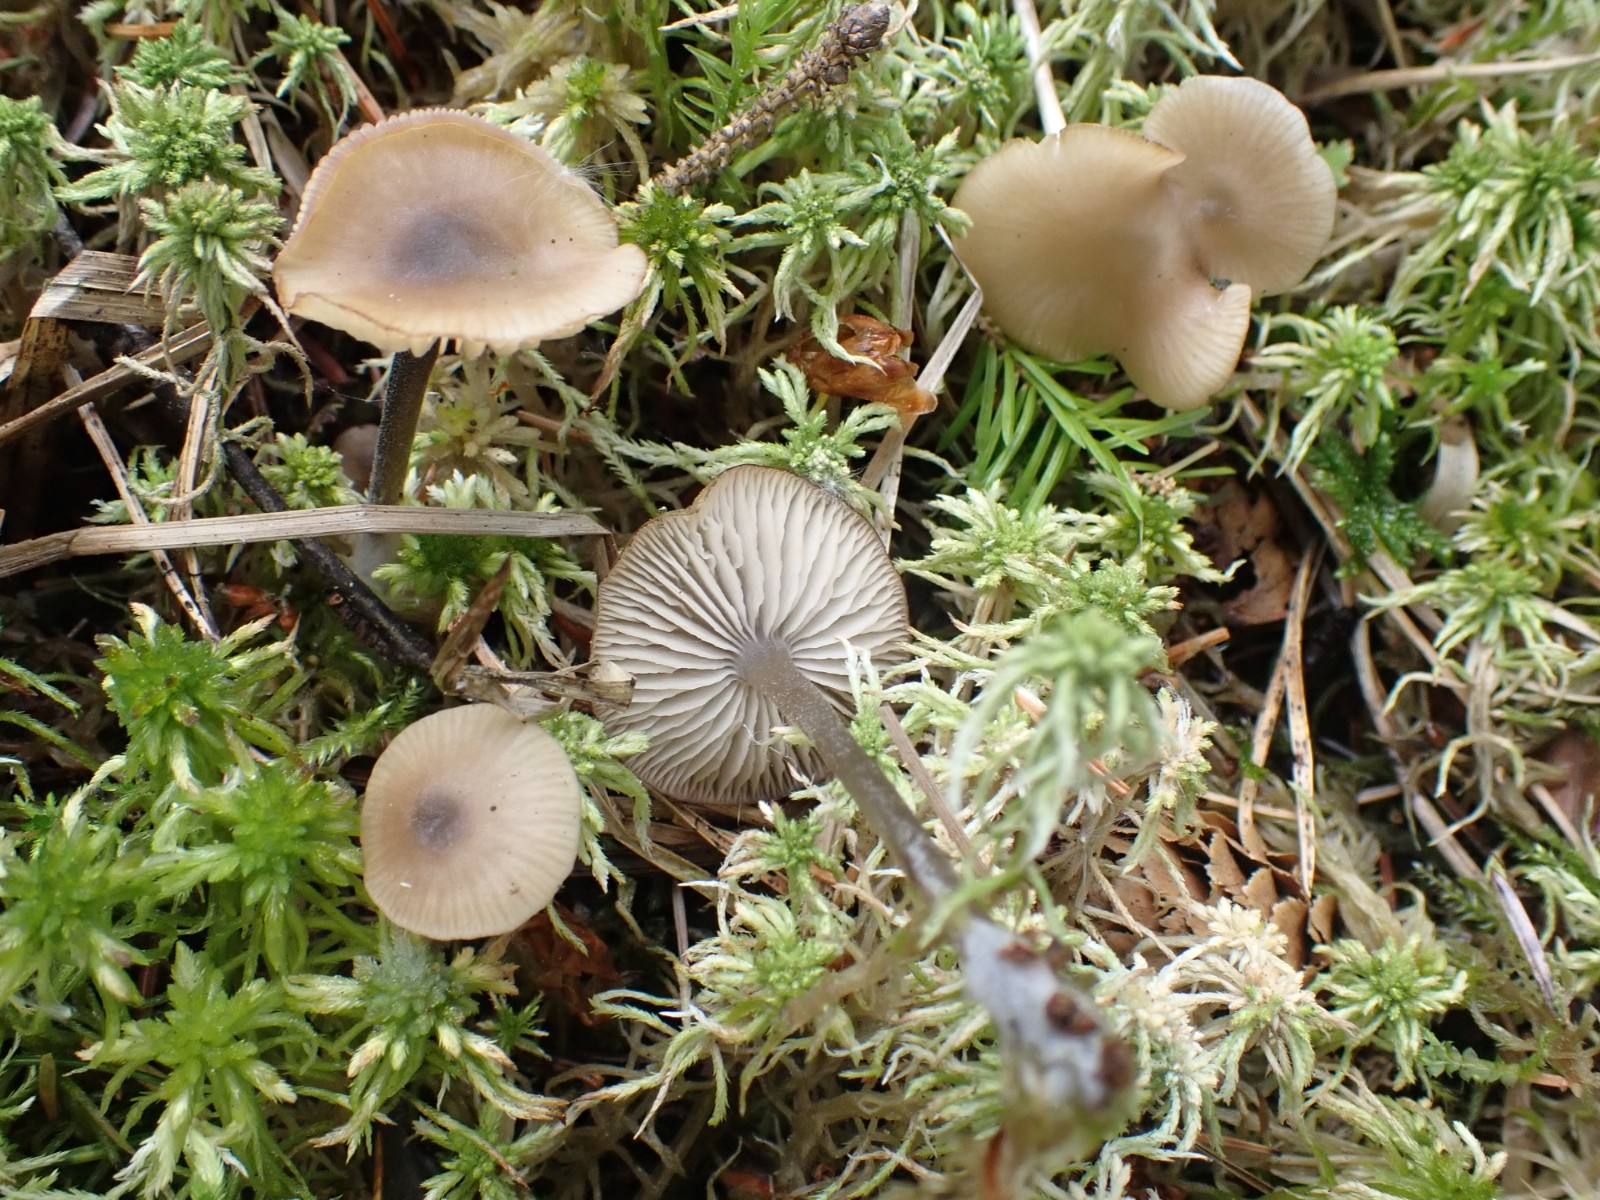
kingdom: Fungi
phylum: Basidiomycota
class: Agaricomycetes
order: Agaricales
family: Lyophyllaceae
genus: Sphagnurus
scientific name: Sphagnurus paluster
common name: tørvemos-gråblad
